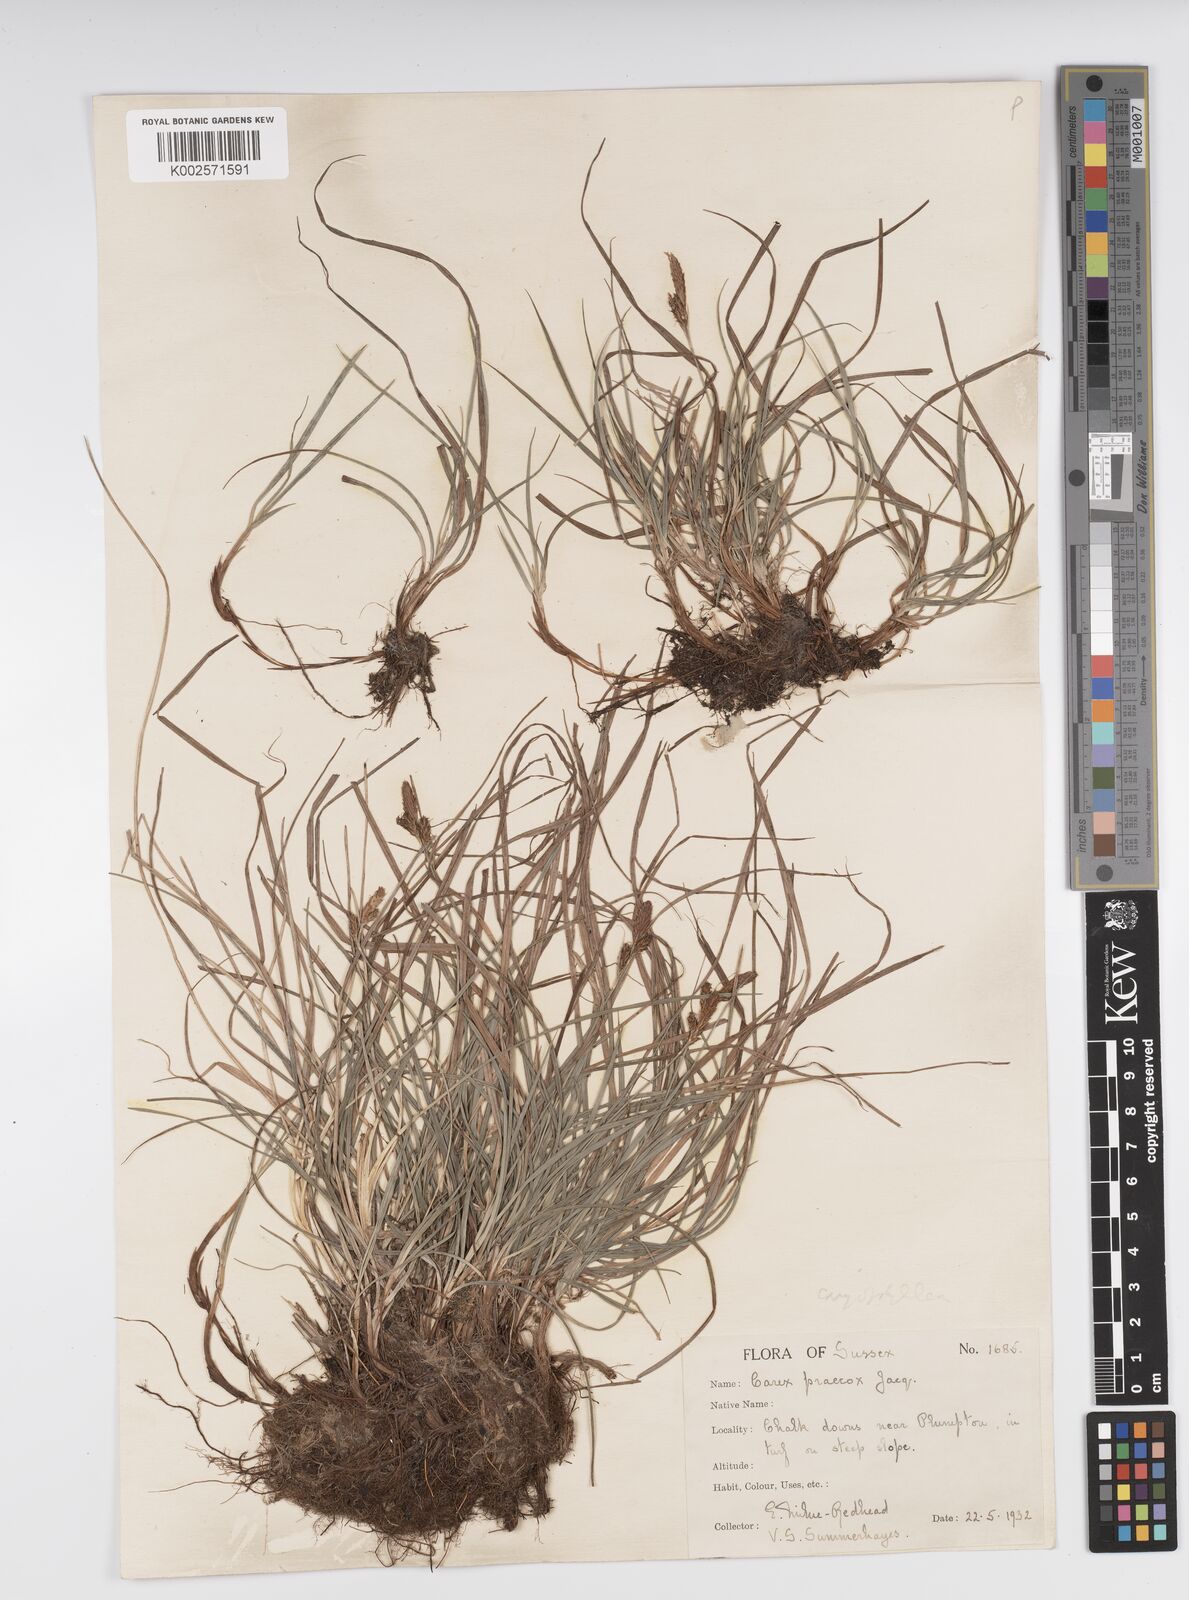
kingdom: Plantae
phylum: Tracheophyta
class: Liliopsida
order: Poales
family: Cyperaceae
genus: Carex
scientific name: Carex caryophyllea
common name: Spring sedge
